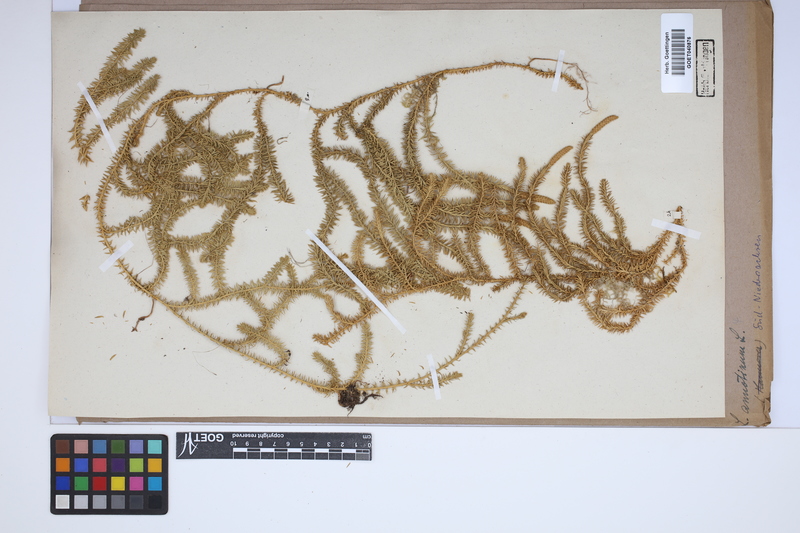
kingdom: Plantae
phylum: Tracheophyta
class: Lycopodiopsida
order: Lycopodiales
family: Lycopodiaceae
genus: Spinulum
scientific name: Spinulum annotinum
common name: Interrupted club-moss
